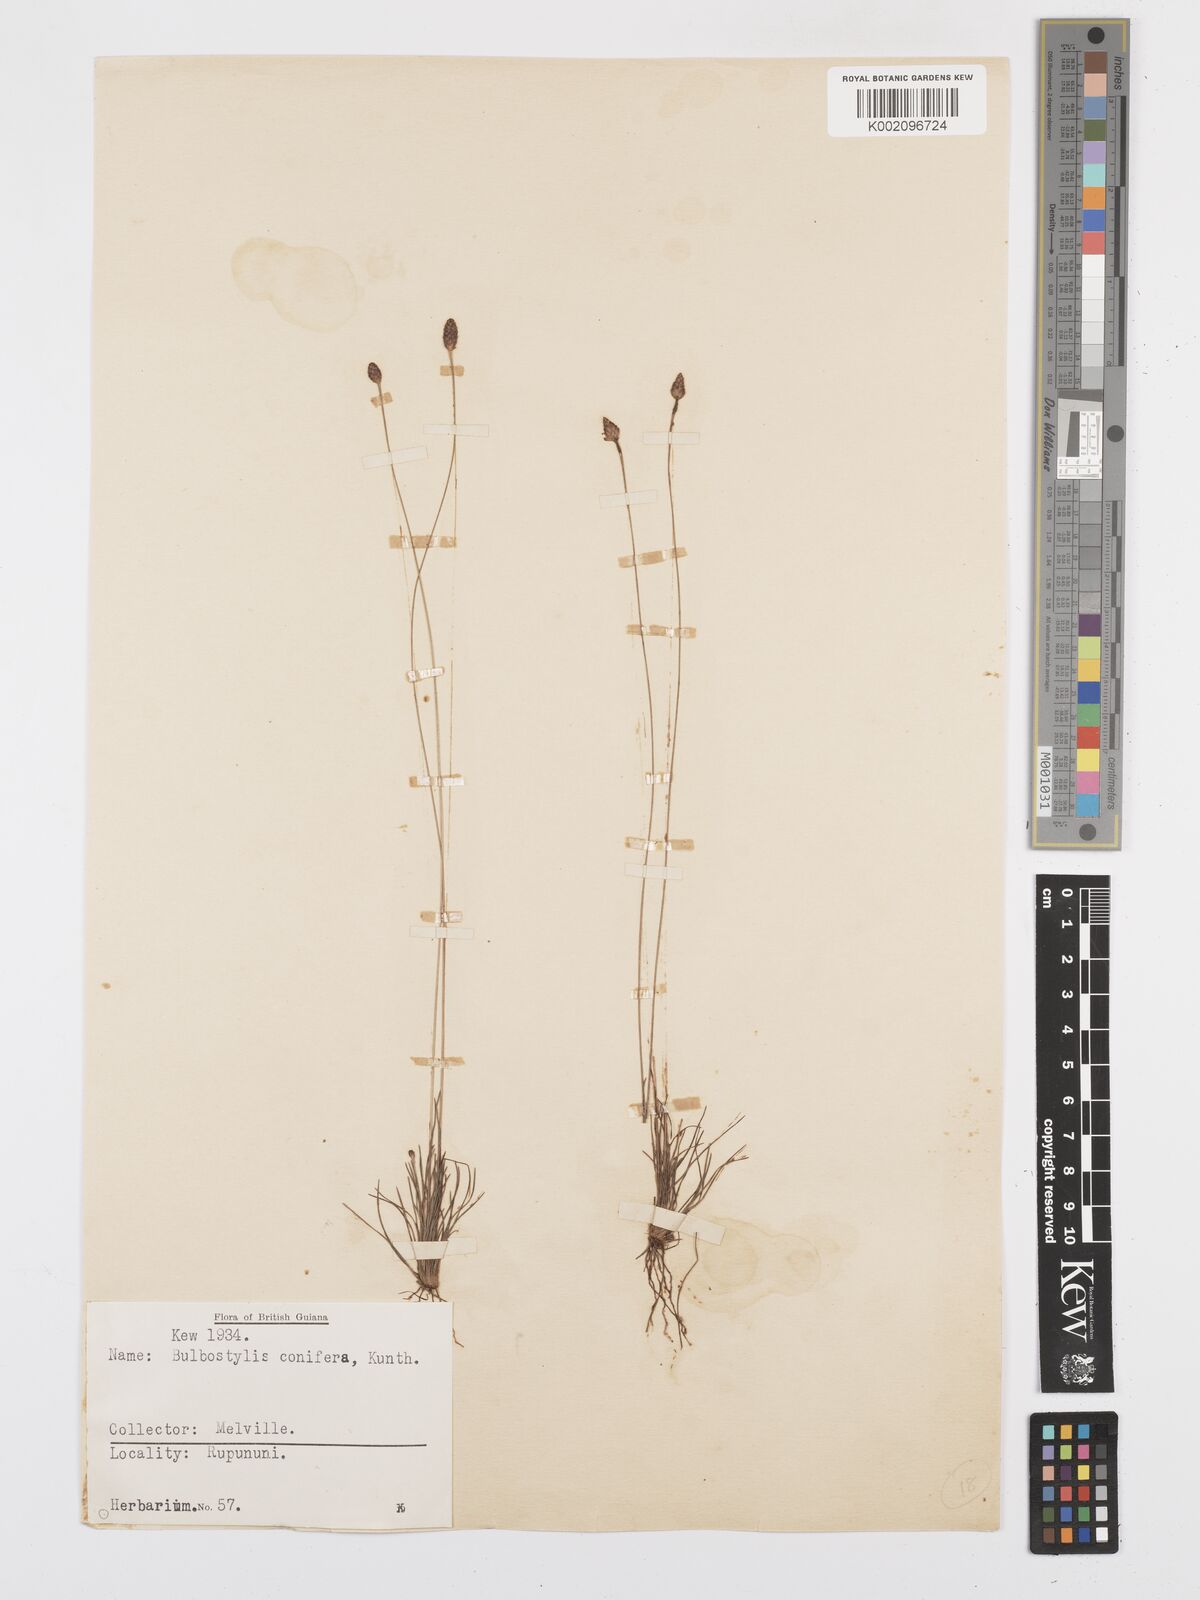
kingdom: Plantae
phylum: Tracheophyta
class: Liliopsida
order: Poales
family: Cyperaceae
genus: Bulbostylis
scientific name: Bulbostylis conifera
